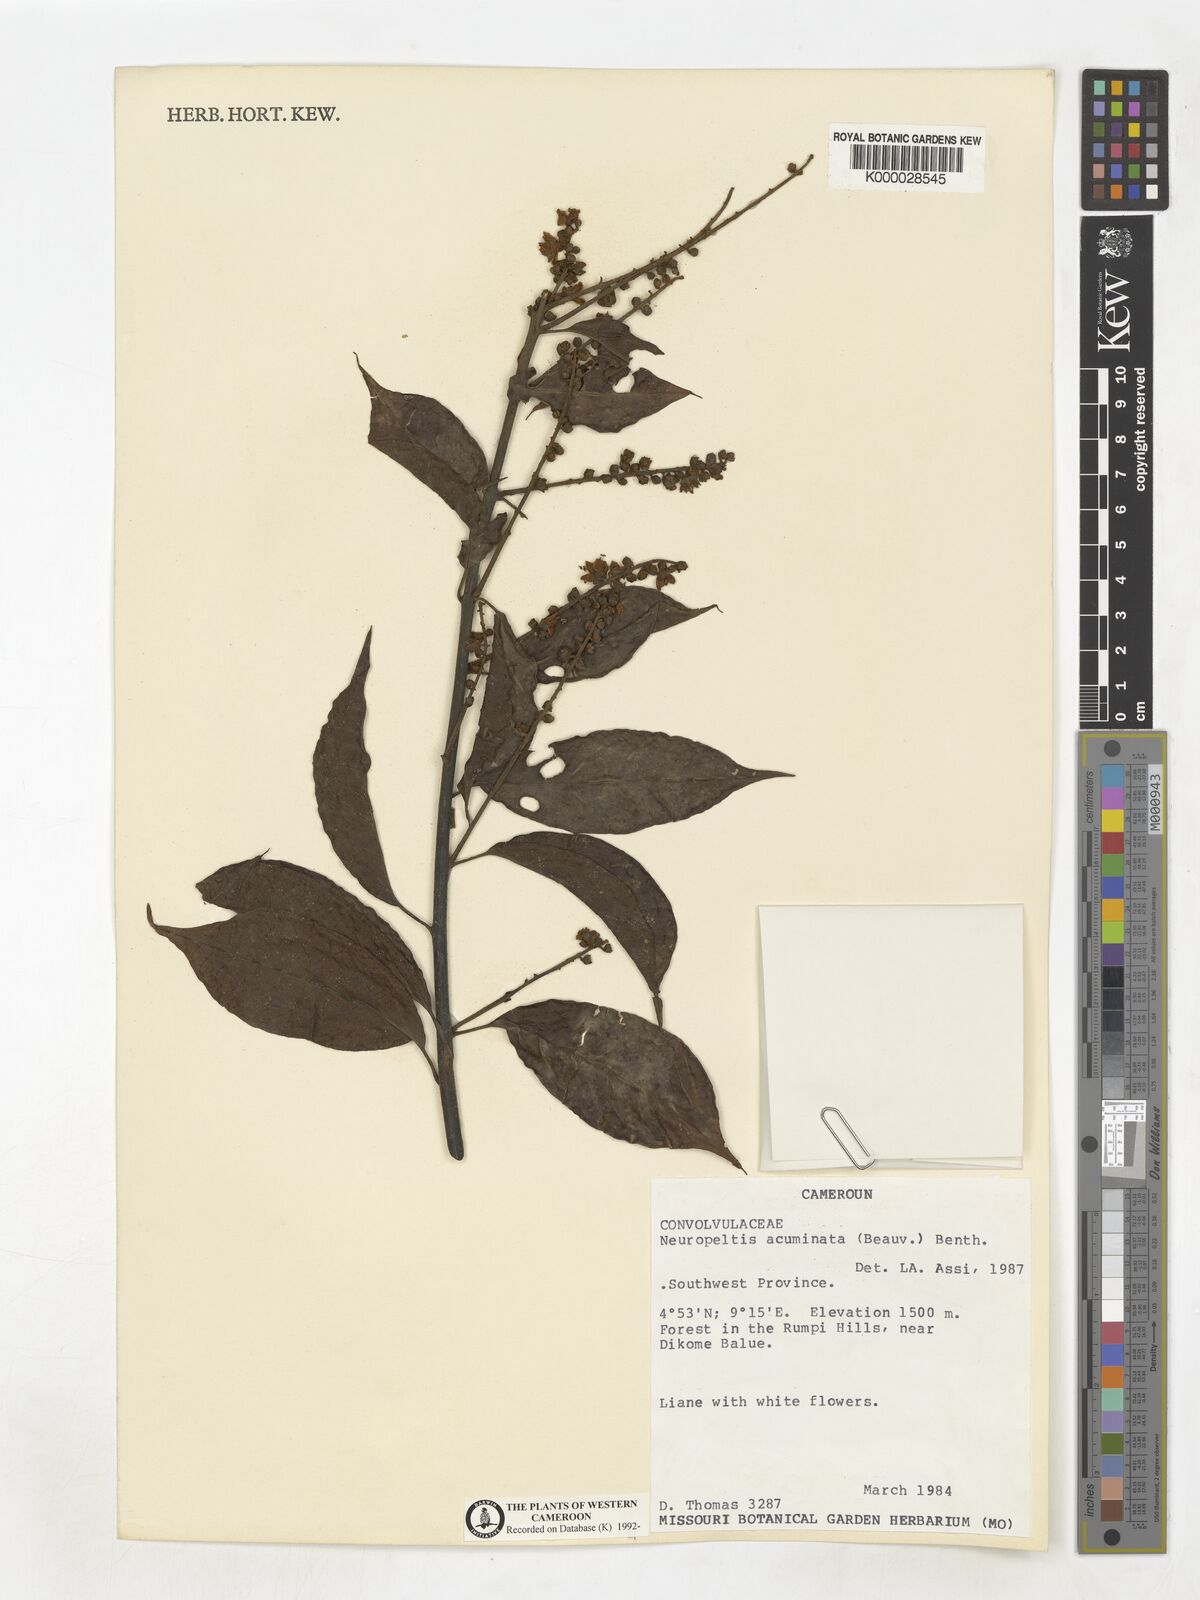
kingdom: Plantae
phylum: Tracheophyta
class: Magnoliopsida
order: Solanales
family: Convolvulaceae
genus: Neuropeltis
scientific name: Neuropeltis acuminata
